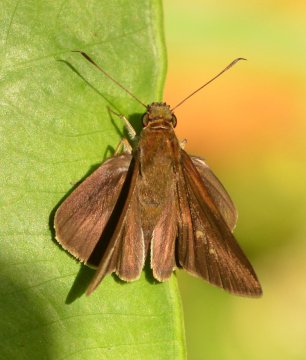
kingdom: Animalia
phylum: Arthropoda
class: Insecta
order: Lepidoptera
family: Hesperiidae
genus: Corticea
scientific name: Corticea corticea
